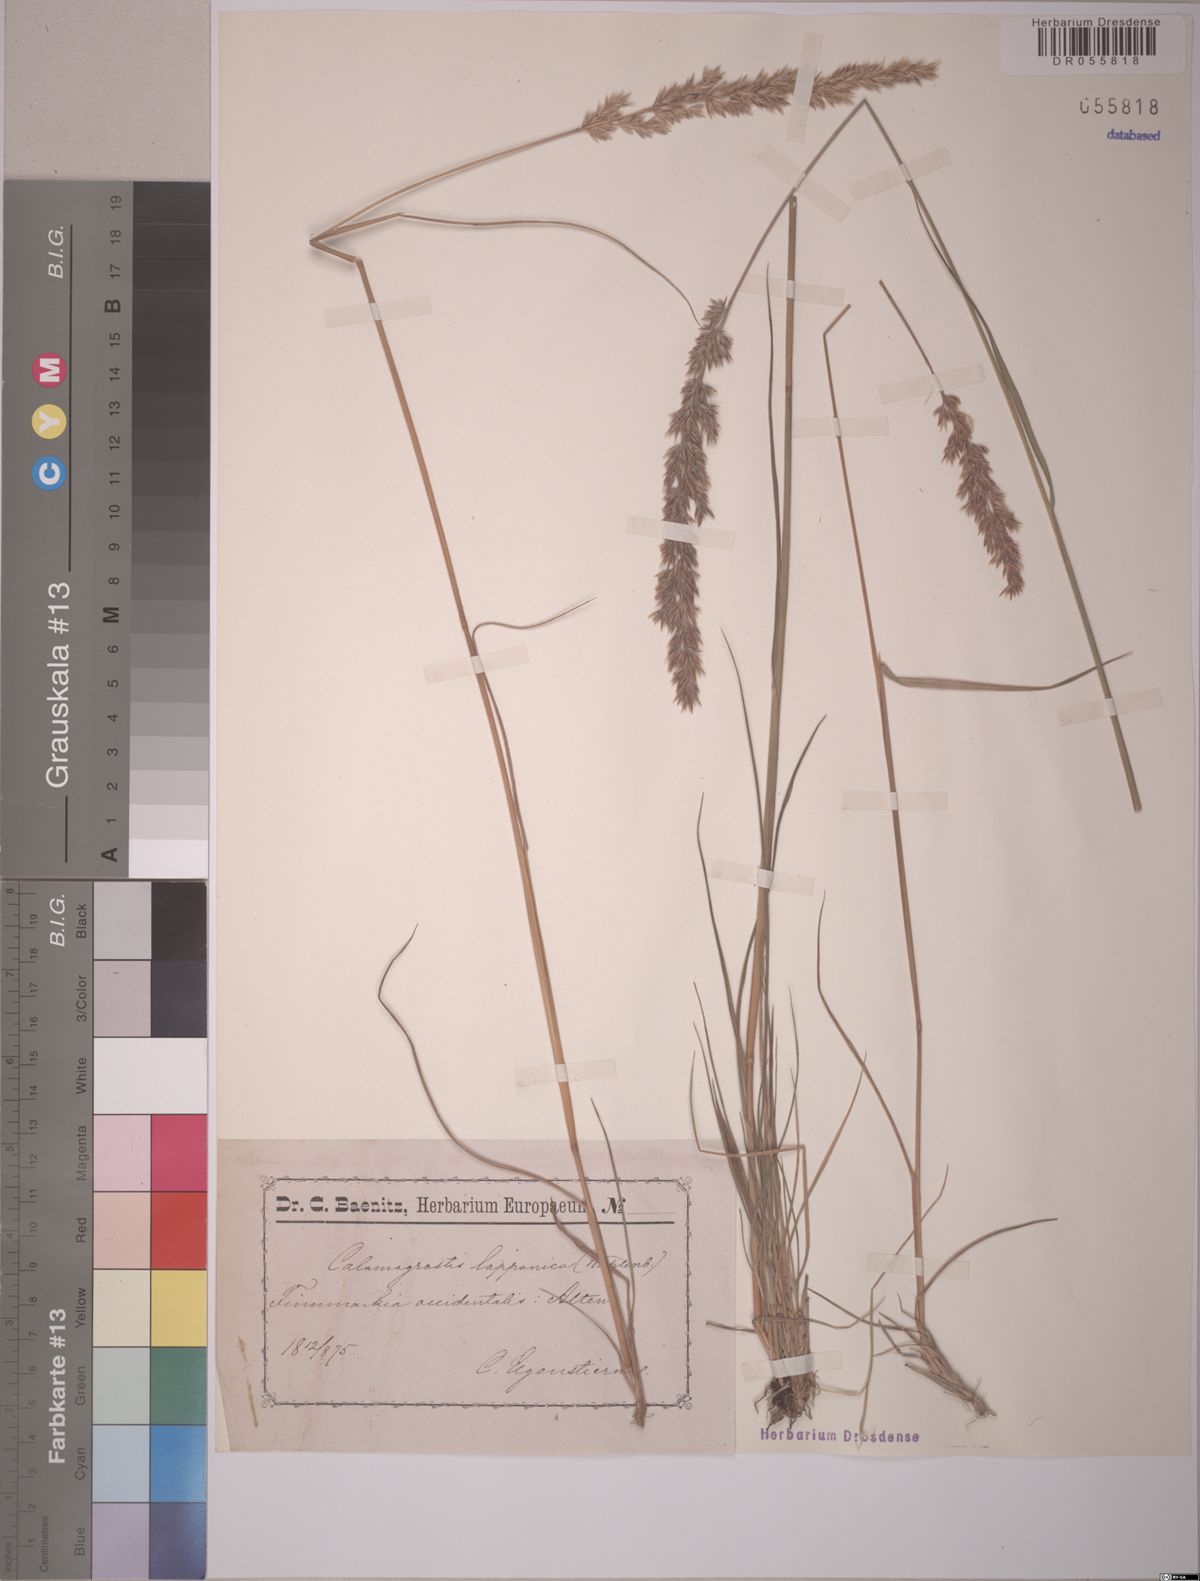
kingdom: Plantae
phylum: Tracheophyta
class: Liliopsida
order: Poales
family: Poaceae
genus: Calamagrostis
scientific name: Calamagrostis lapponica
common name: Lapland reedgrass
